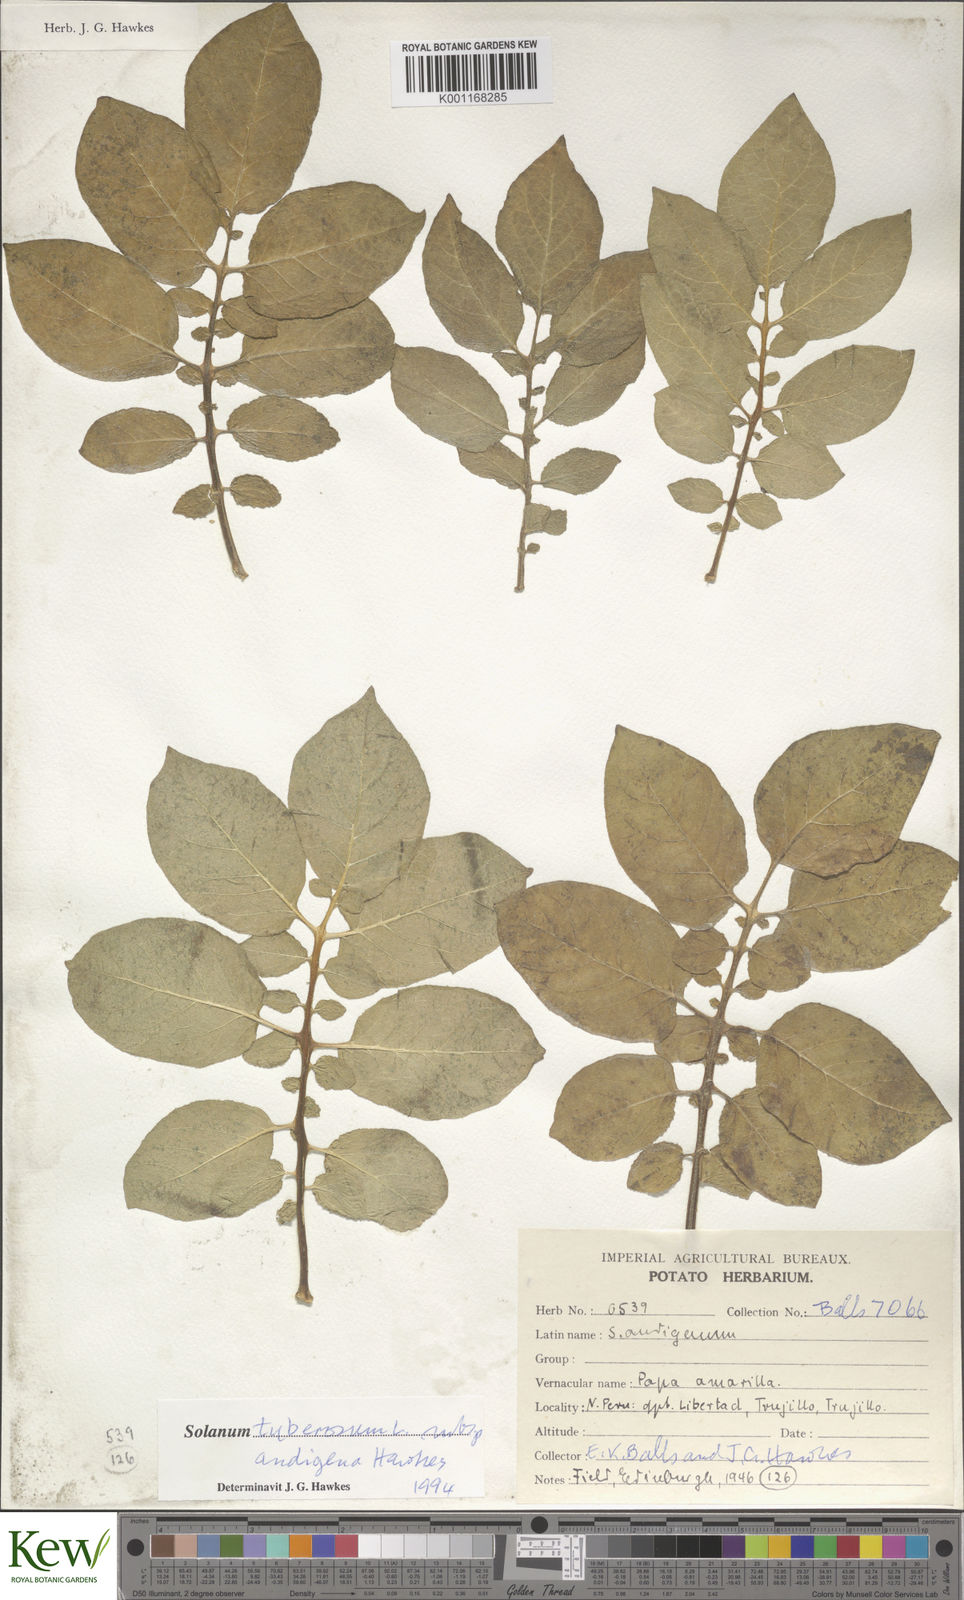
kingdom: Plantae
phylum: Tracheophyta
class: Magnoliopsida
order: Solanales
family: Solanaceae
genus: Solanum
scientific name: Solanum tuberosum
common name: Potato
